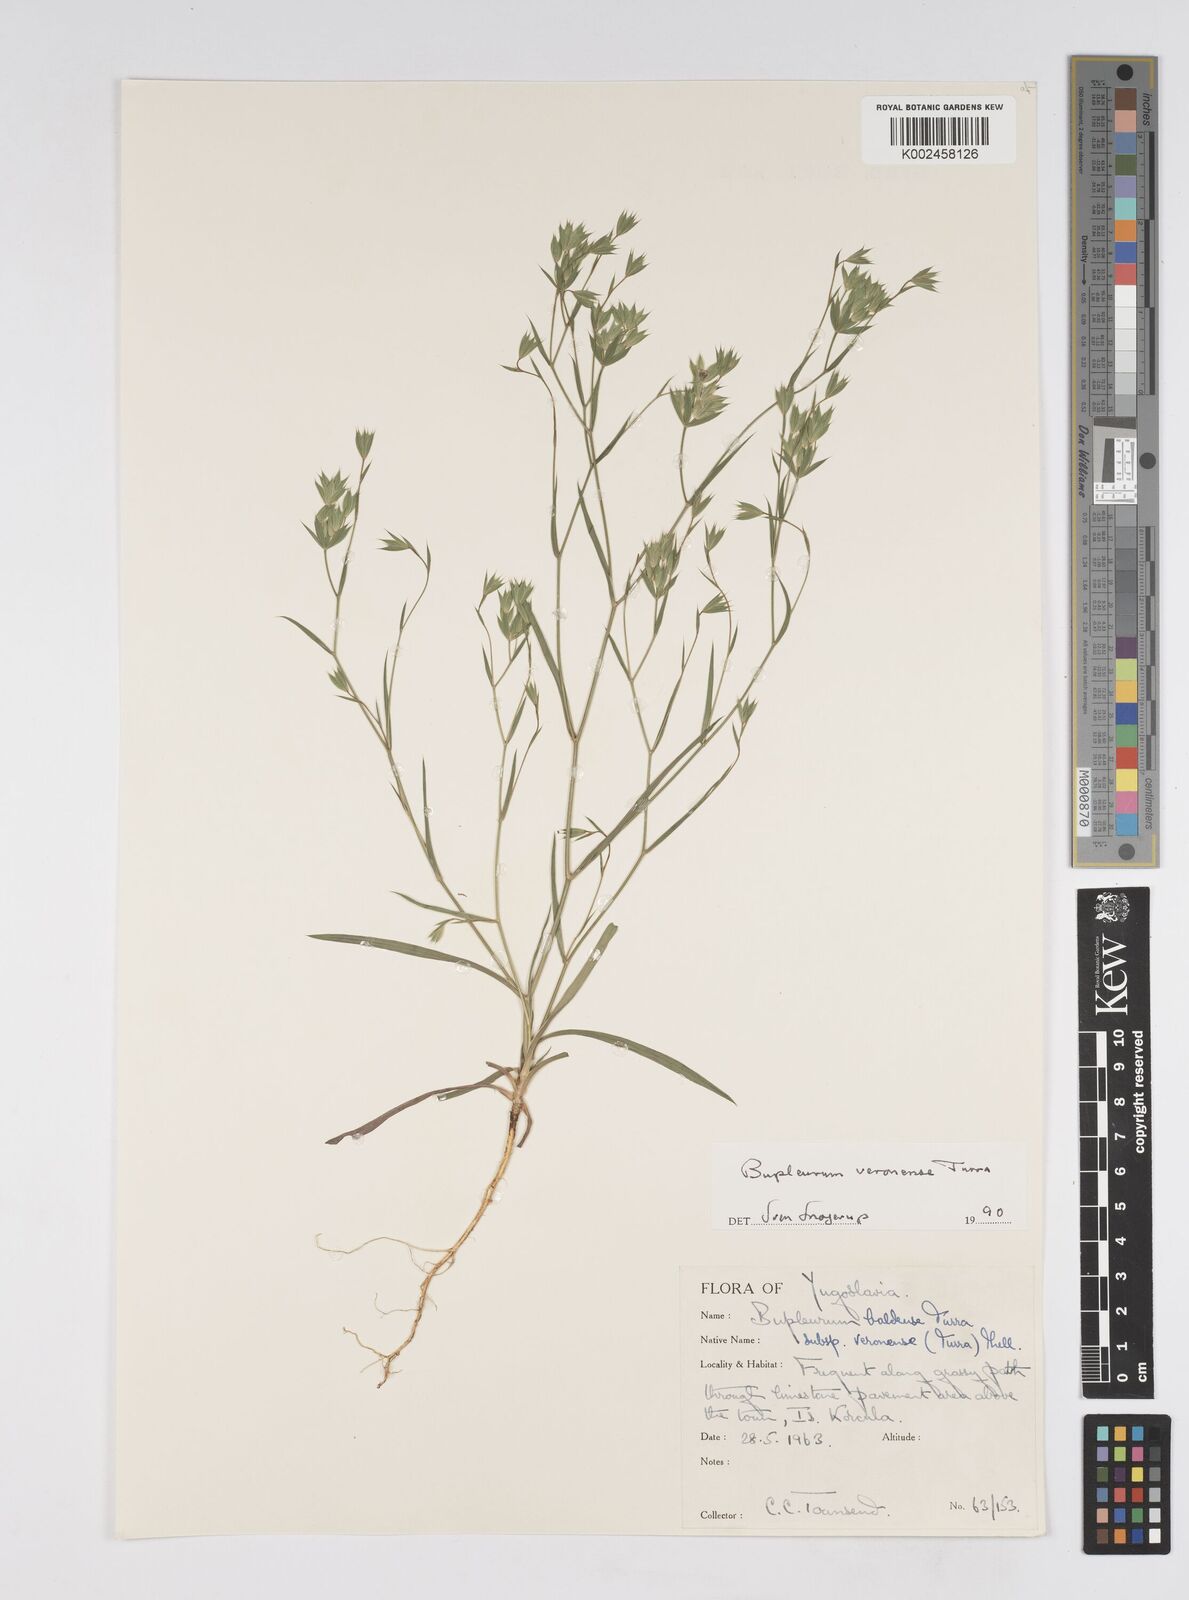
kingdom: Plantae
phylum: Tracheophyta
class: Magnoliopsida
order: Apiales
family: Apiaceae
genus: Bupleurum
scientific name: Bupleurum baldense
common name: Small hare's-ear
